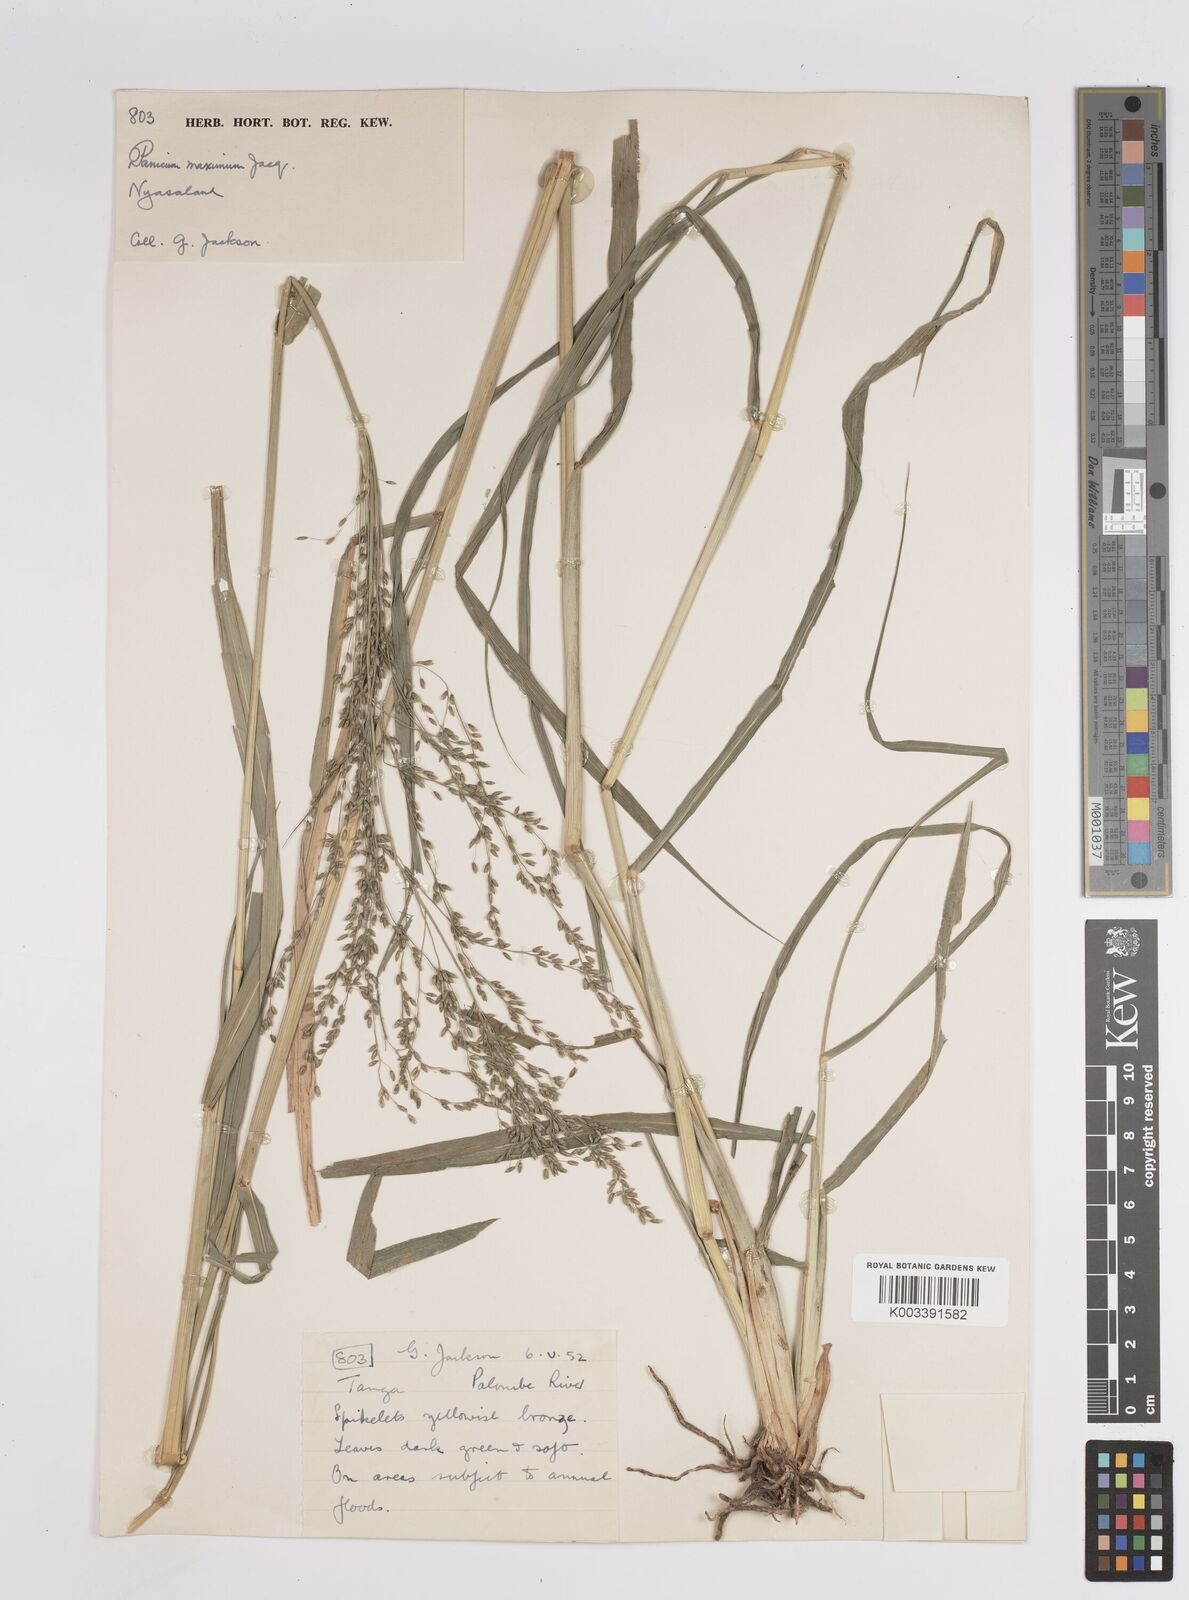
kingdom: Plantae
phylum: Tracheophyta
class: Liliopsida
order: Poales
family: Poaceae
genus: Megathyrsus
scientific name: Megathyrsus maximus
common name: Guineagrass
